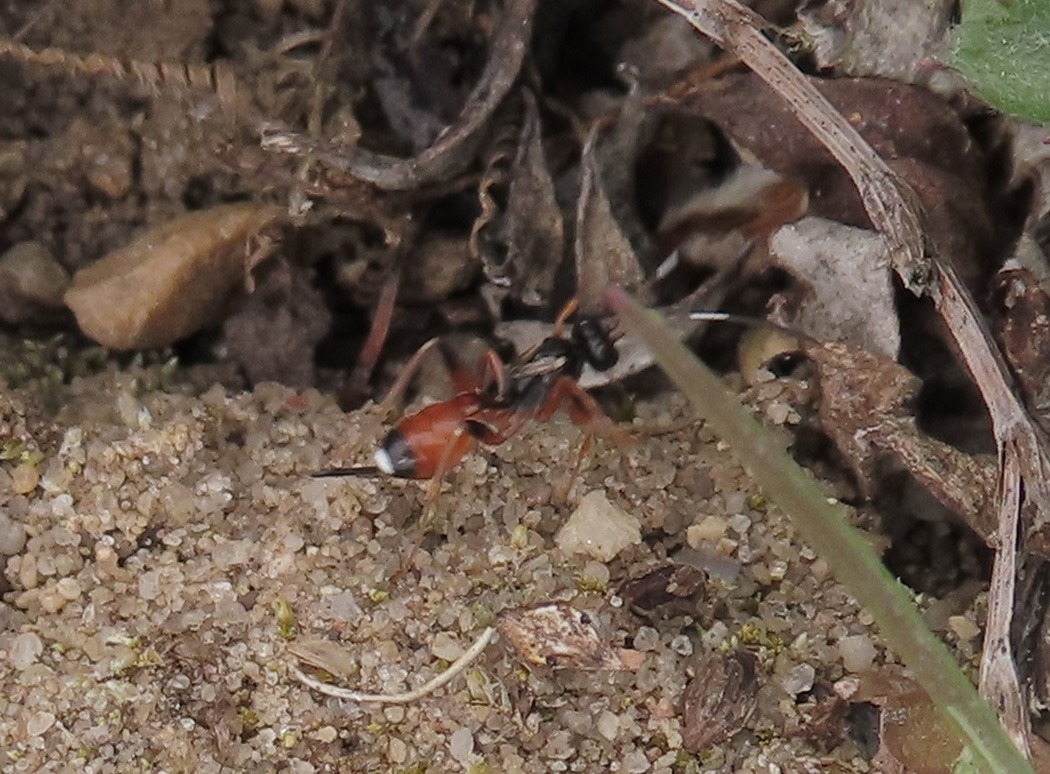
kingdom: Animalia
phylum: Arthropoda
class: Insecta
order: Hymenoptera
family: Ichneumonidae
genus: Pleolophus
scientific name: Pleolophus brachypterus
